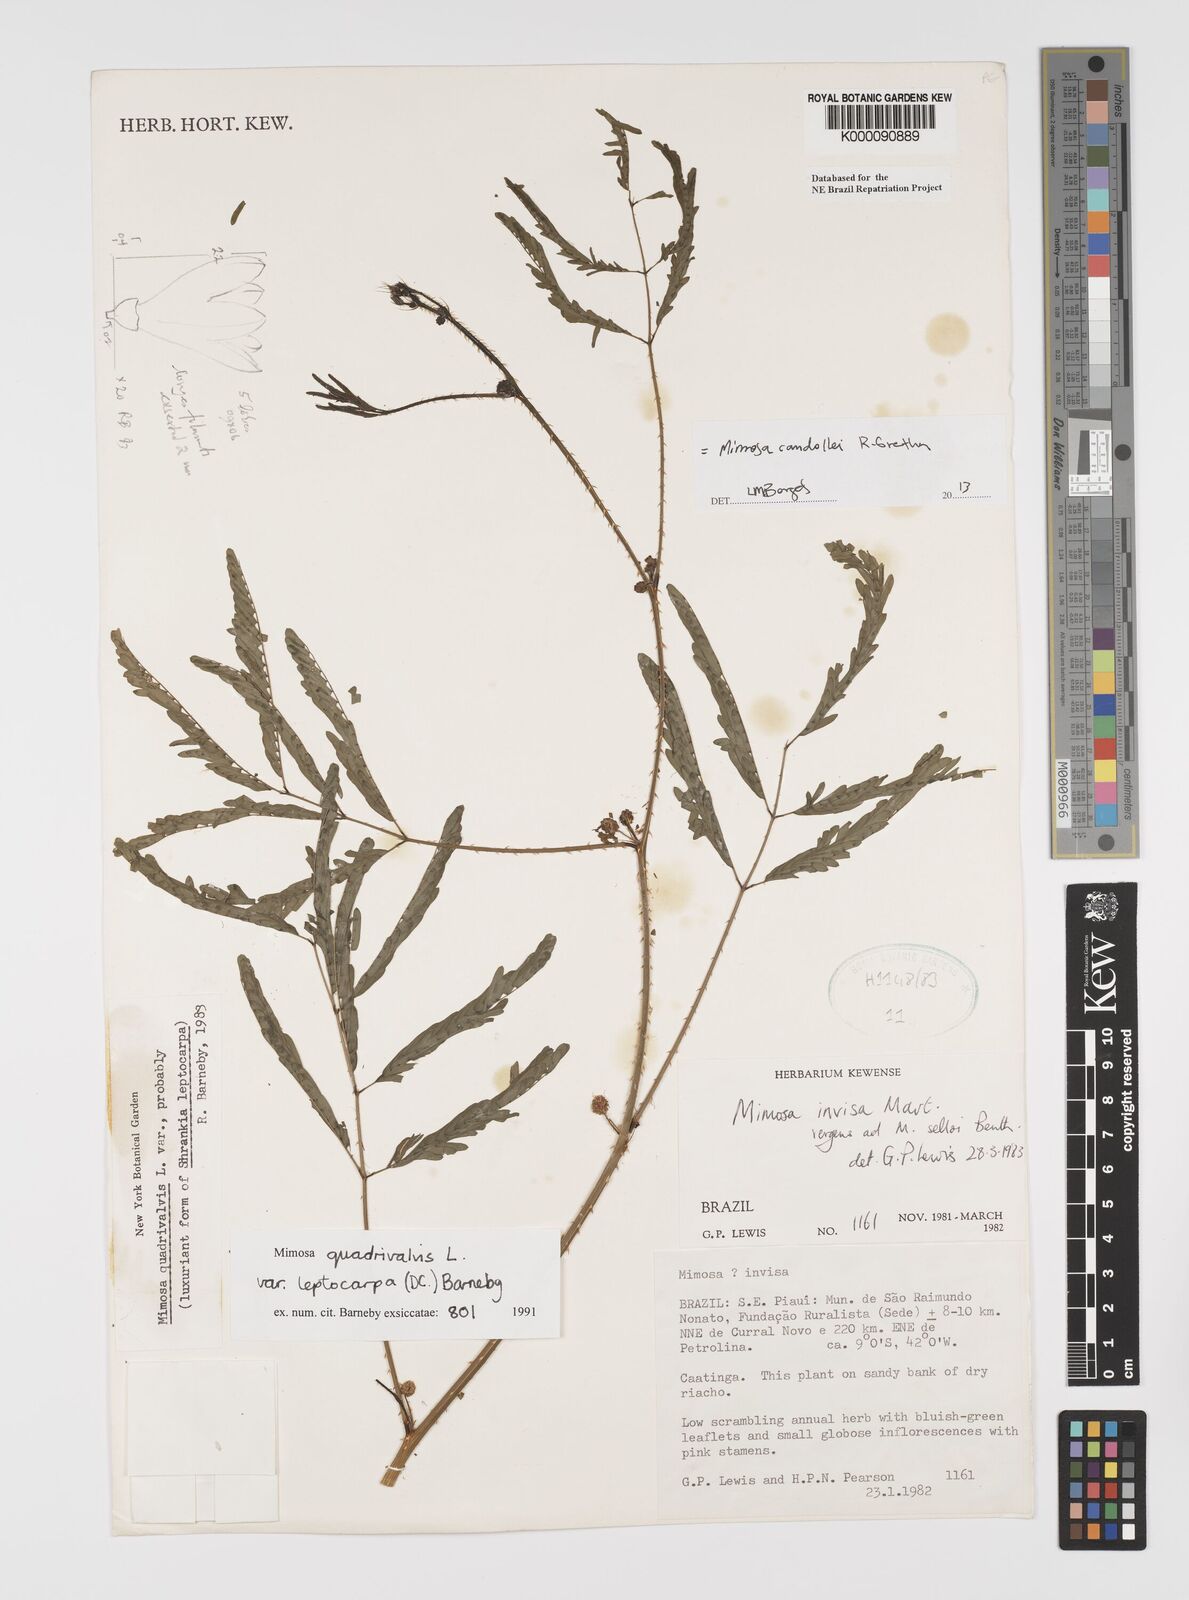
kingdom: Plantae
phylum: Tracheophyta
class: Magnoliopsida
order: Fabales
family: Fabaceae
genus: Mimosa
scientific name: Mimosa candollei
